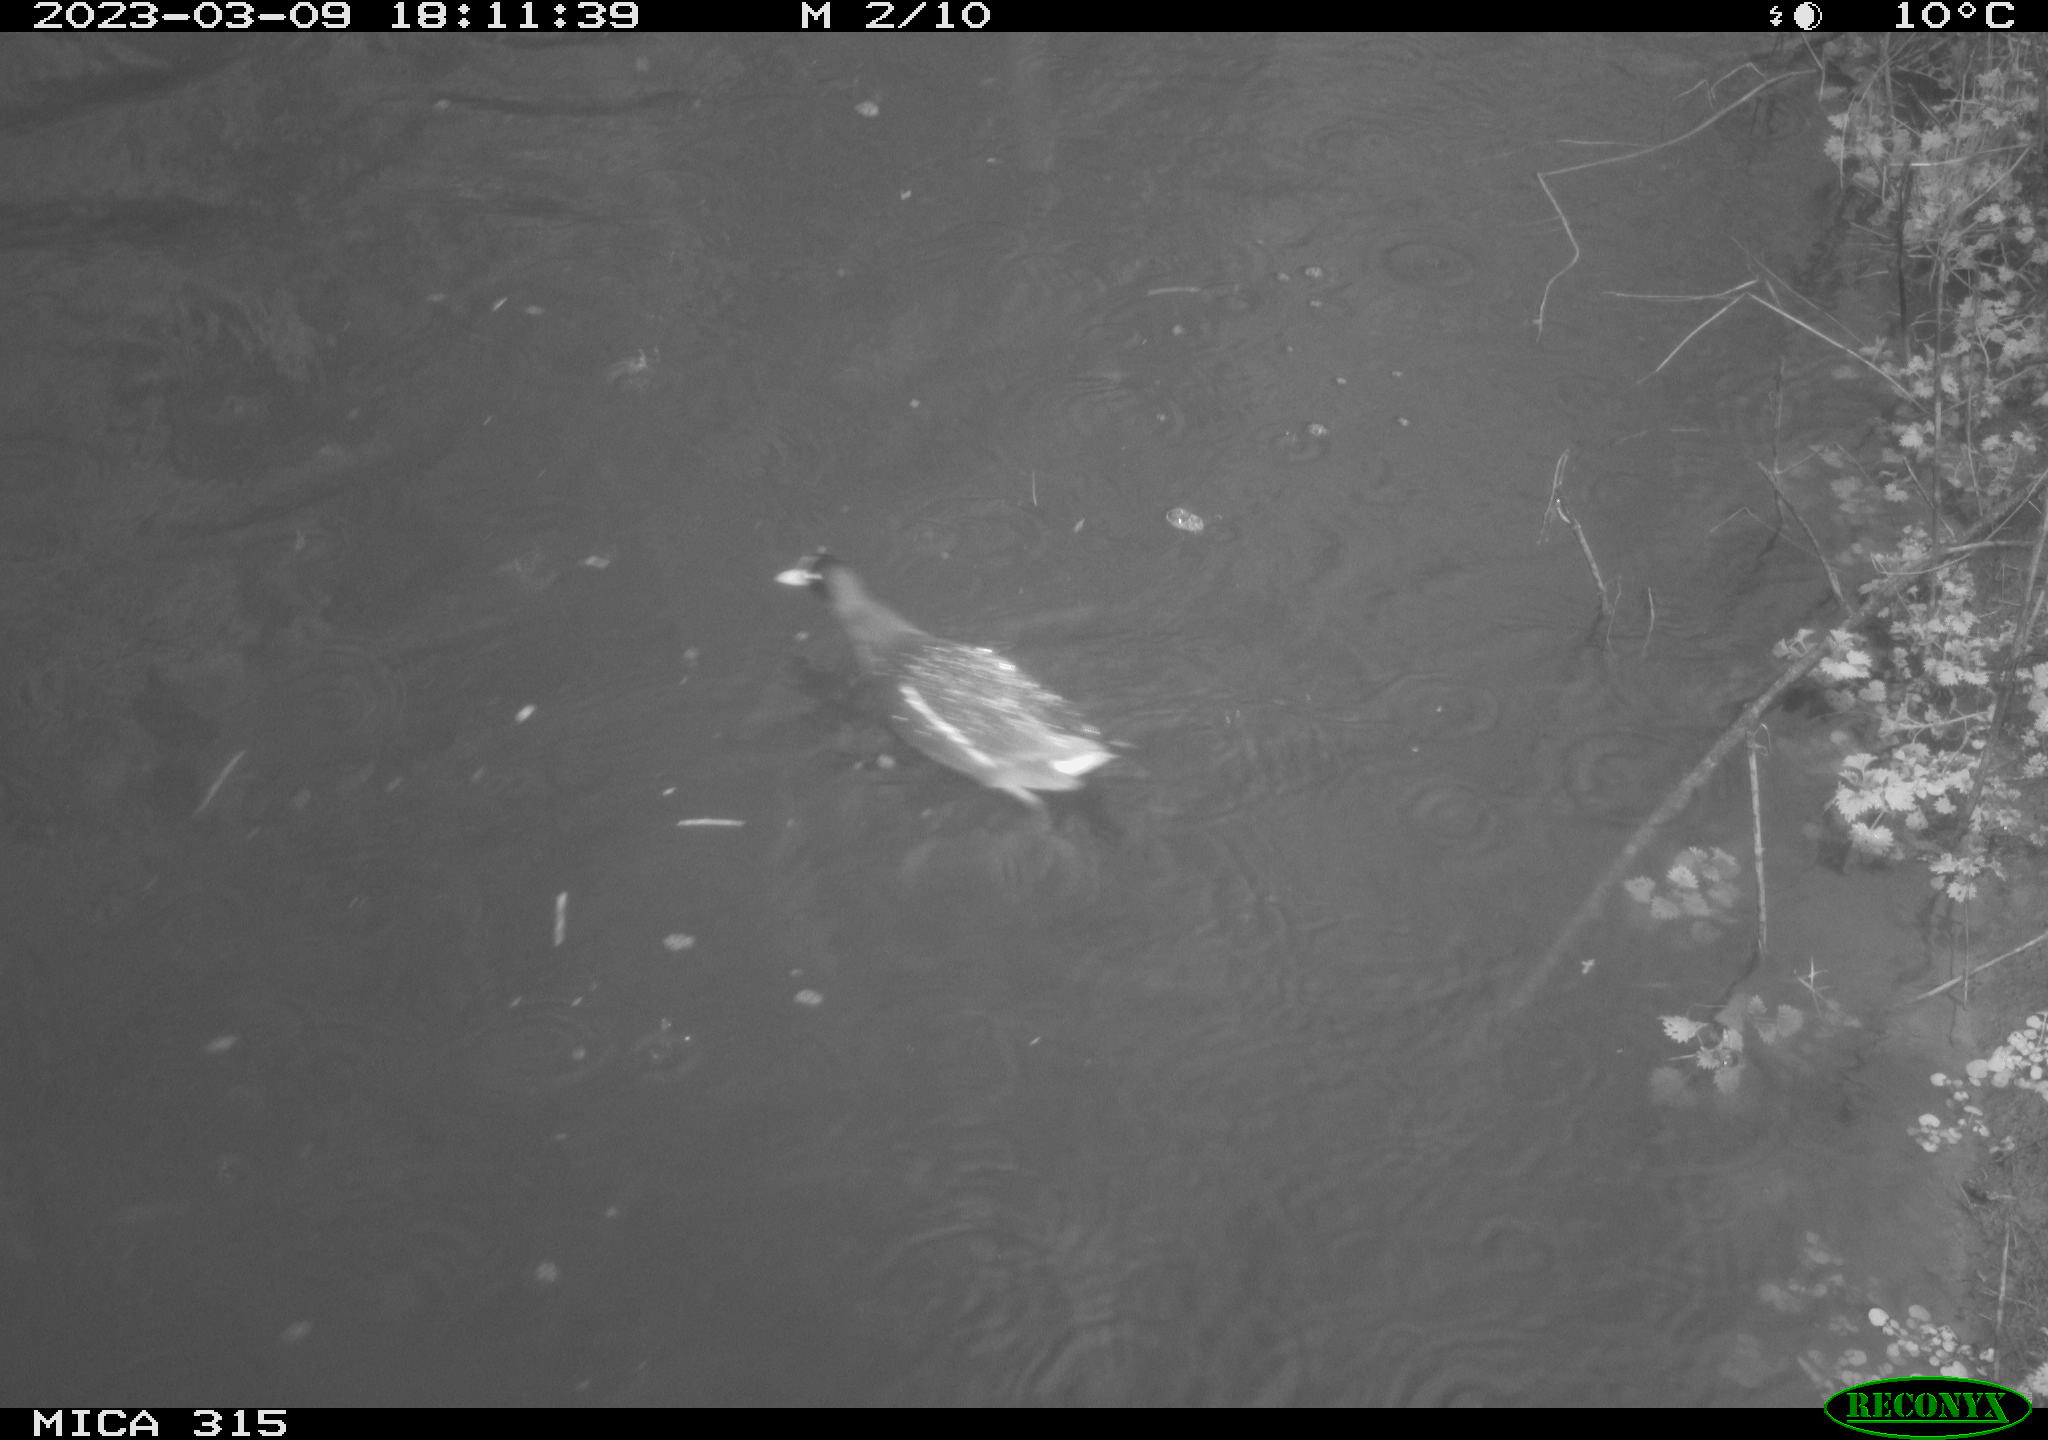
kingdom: Animalia
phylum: Chordata
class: Aves
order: Anseriformes
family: Anatidae
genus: Anas
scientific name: Anas
